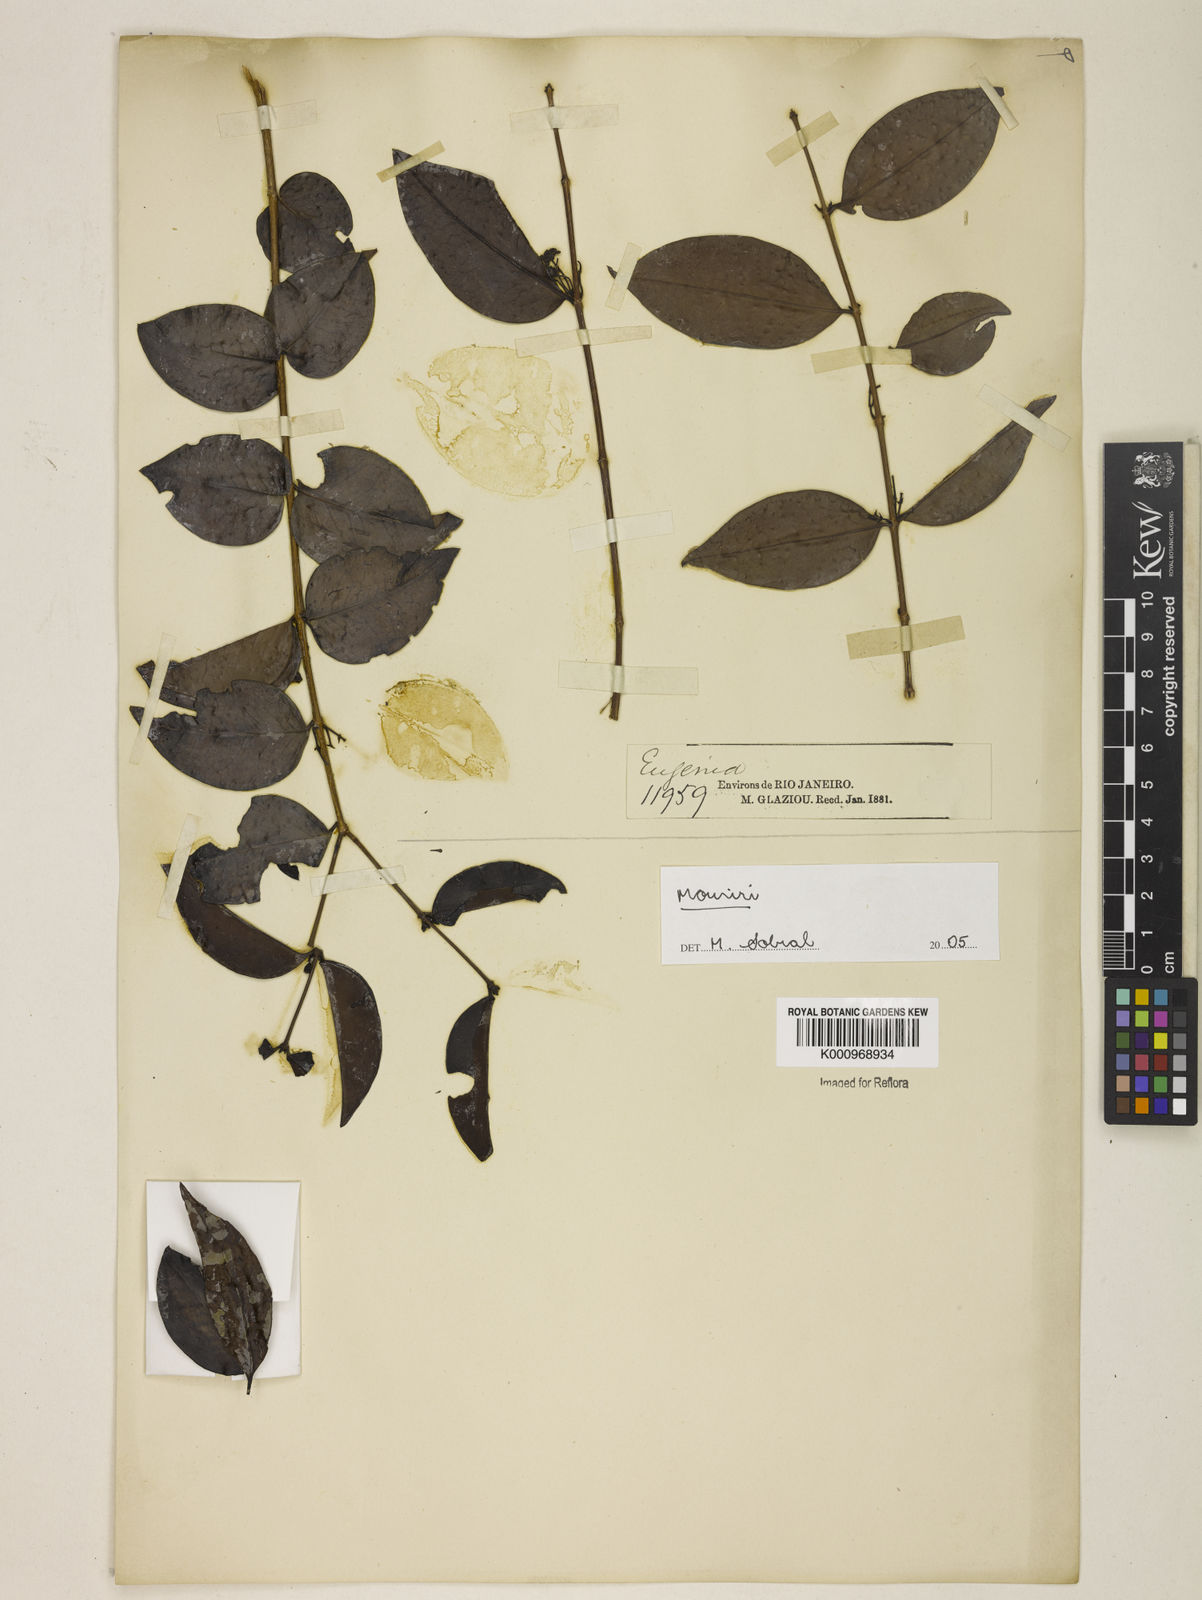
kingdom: Plantae
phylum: Tracheophyta
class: Magnoliopsida
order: Myrtales
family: Melastomataceae
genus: Mouriri
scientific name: Mouriri
